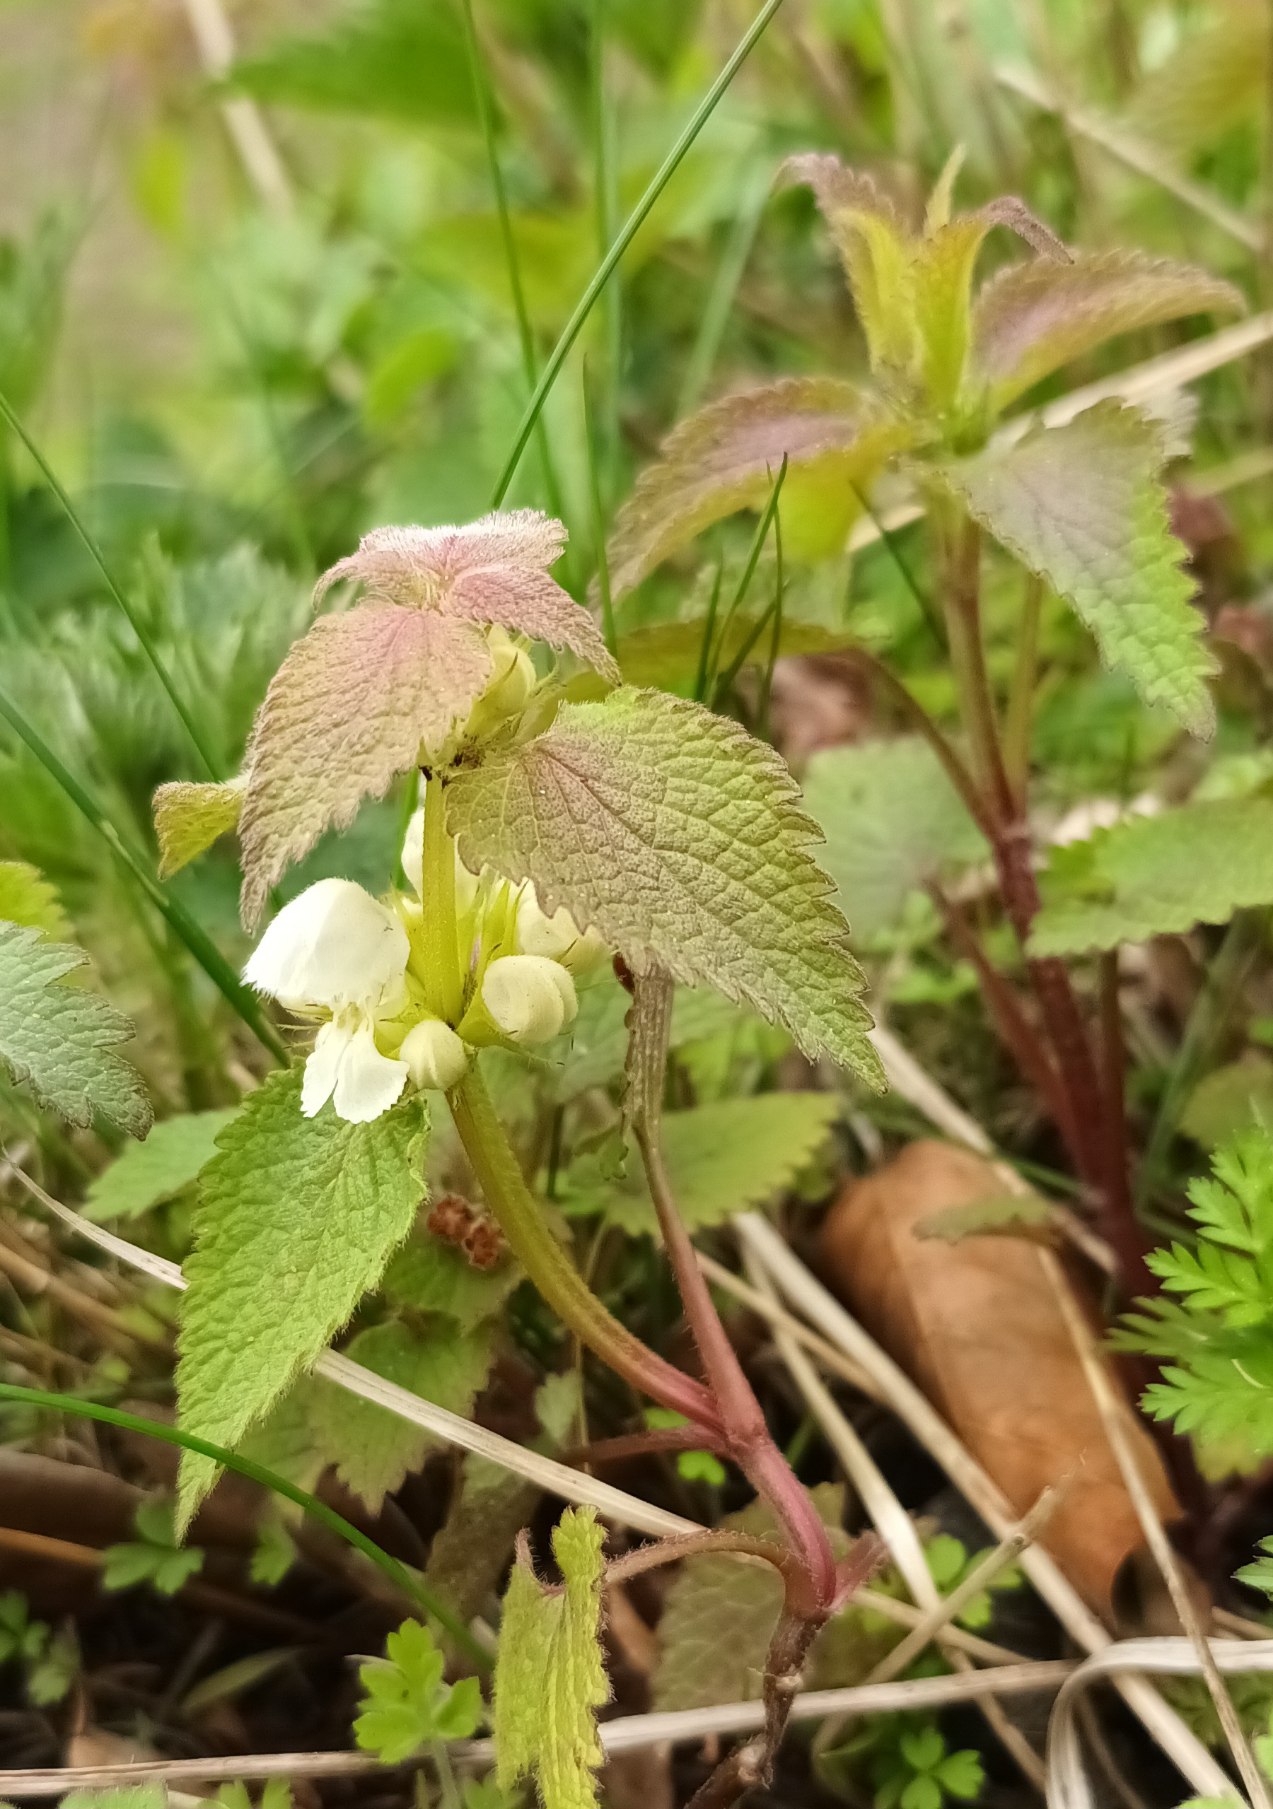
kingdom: Plantae
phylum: Tracheophyta
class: Magnoliopsida
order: Lamiales
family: Lamiaceae
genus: Lamium
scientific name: Lamium album
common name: Døvnælde
